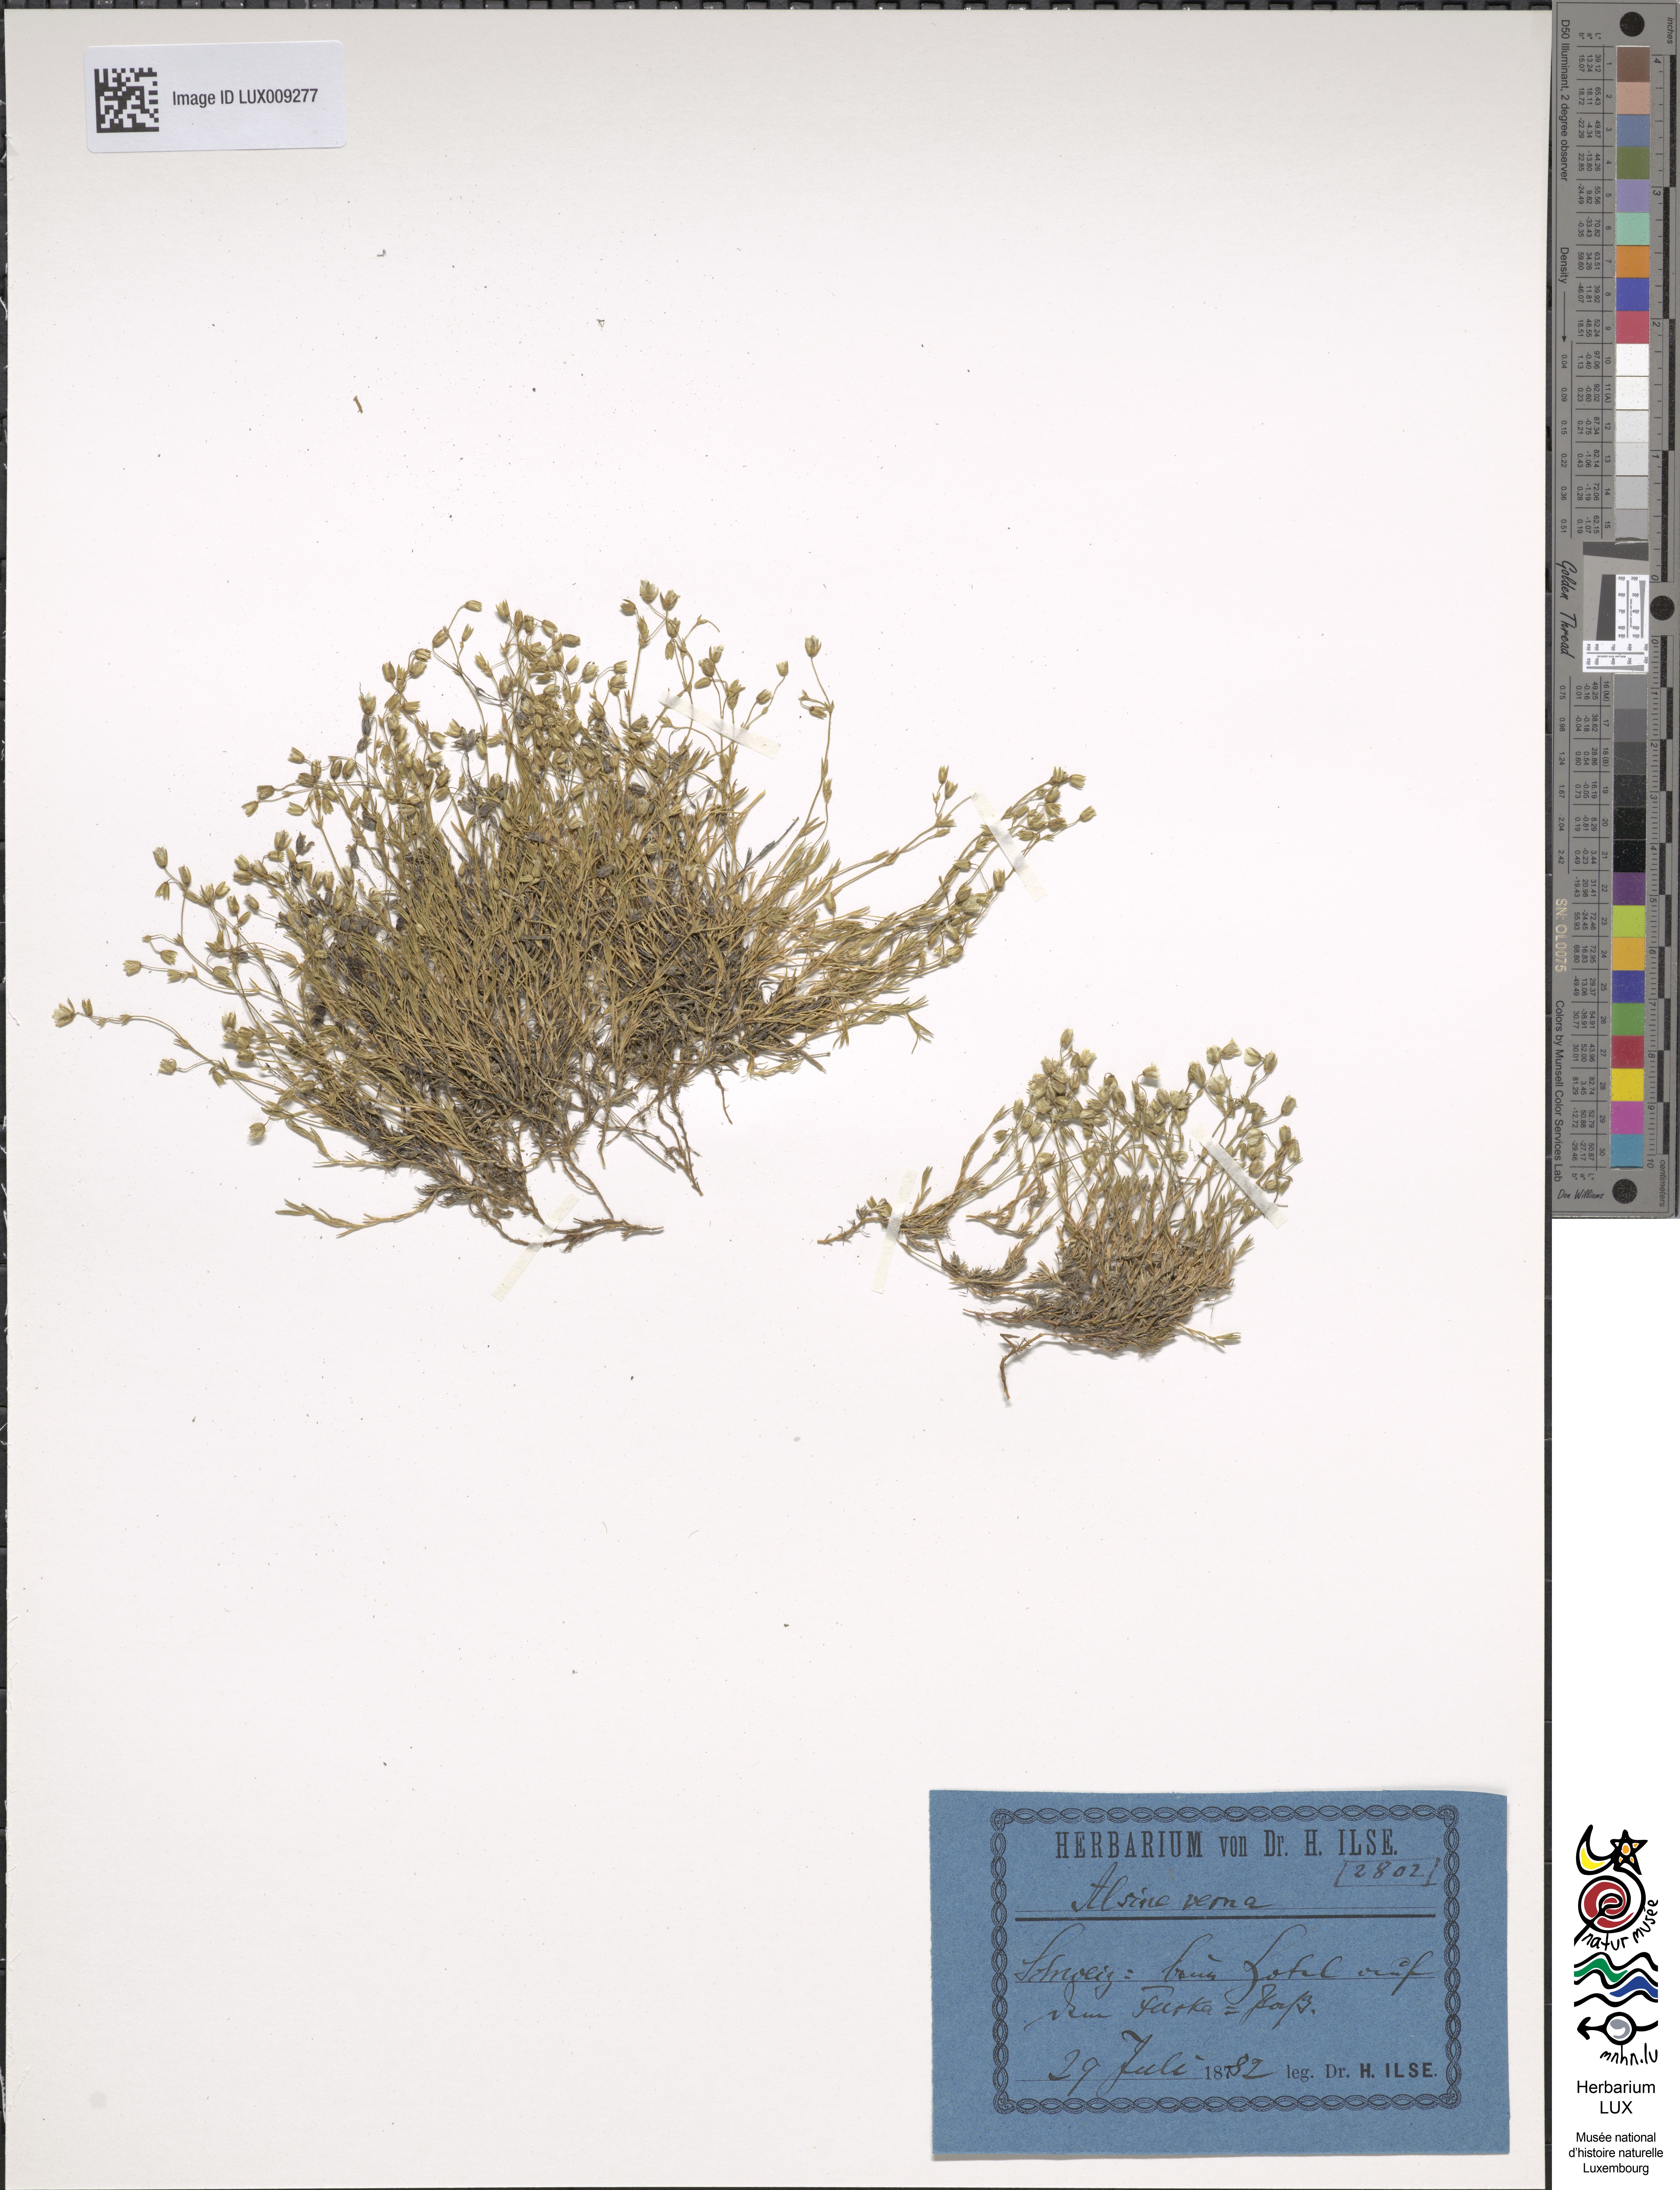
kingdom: Plantae
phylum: Tracheophyta
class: Magnoliopsida
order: Caryophyllales
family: Caryophyllaceae
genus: Sabulina
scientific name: Sabulina verna
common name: Spring sandwort
